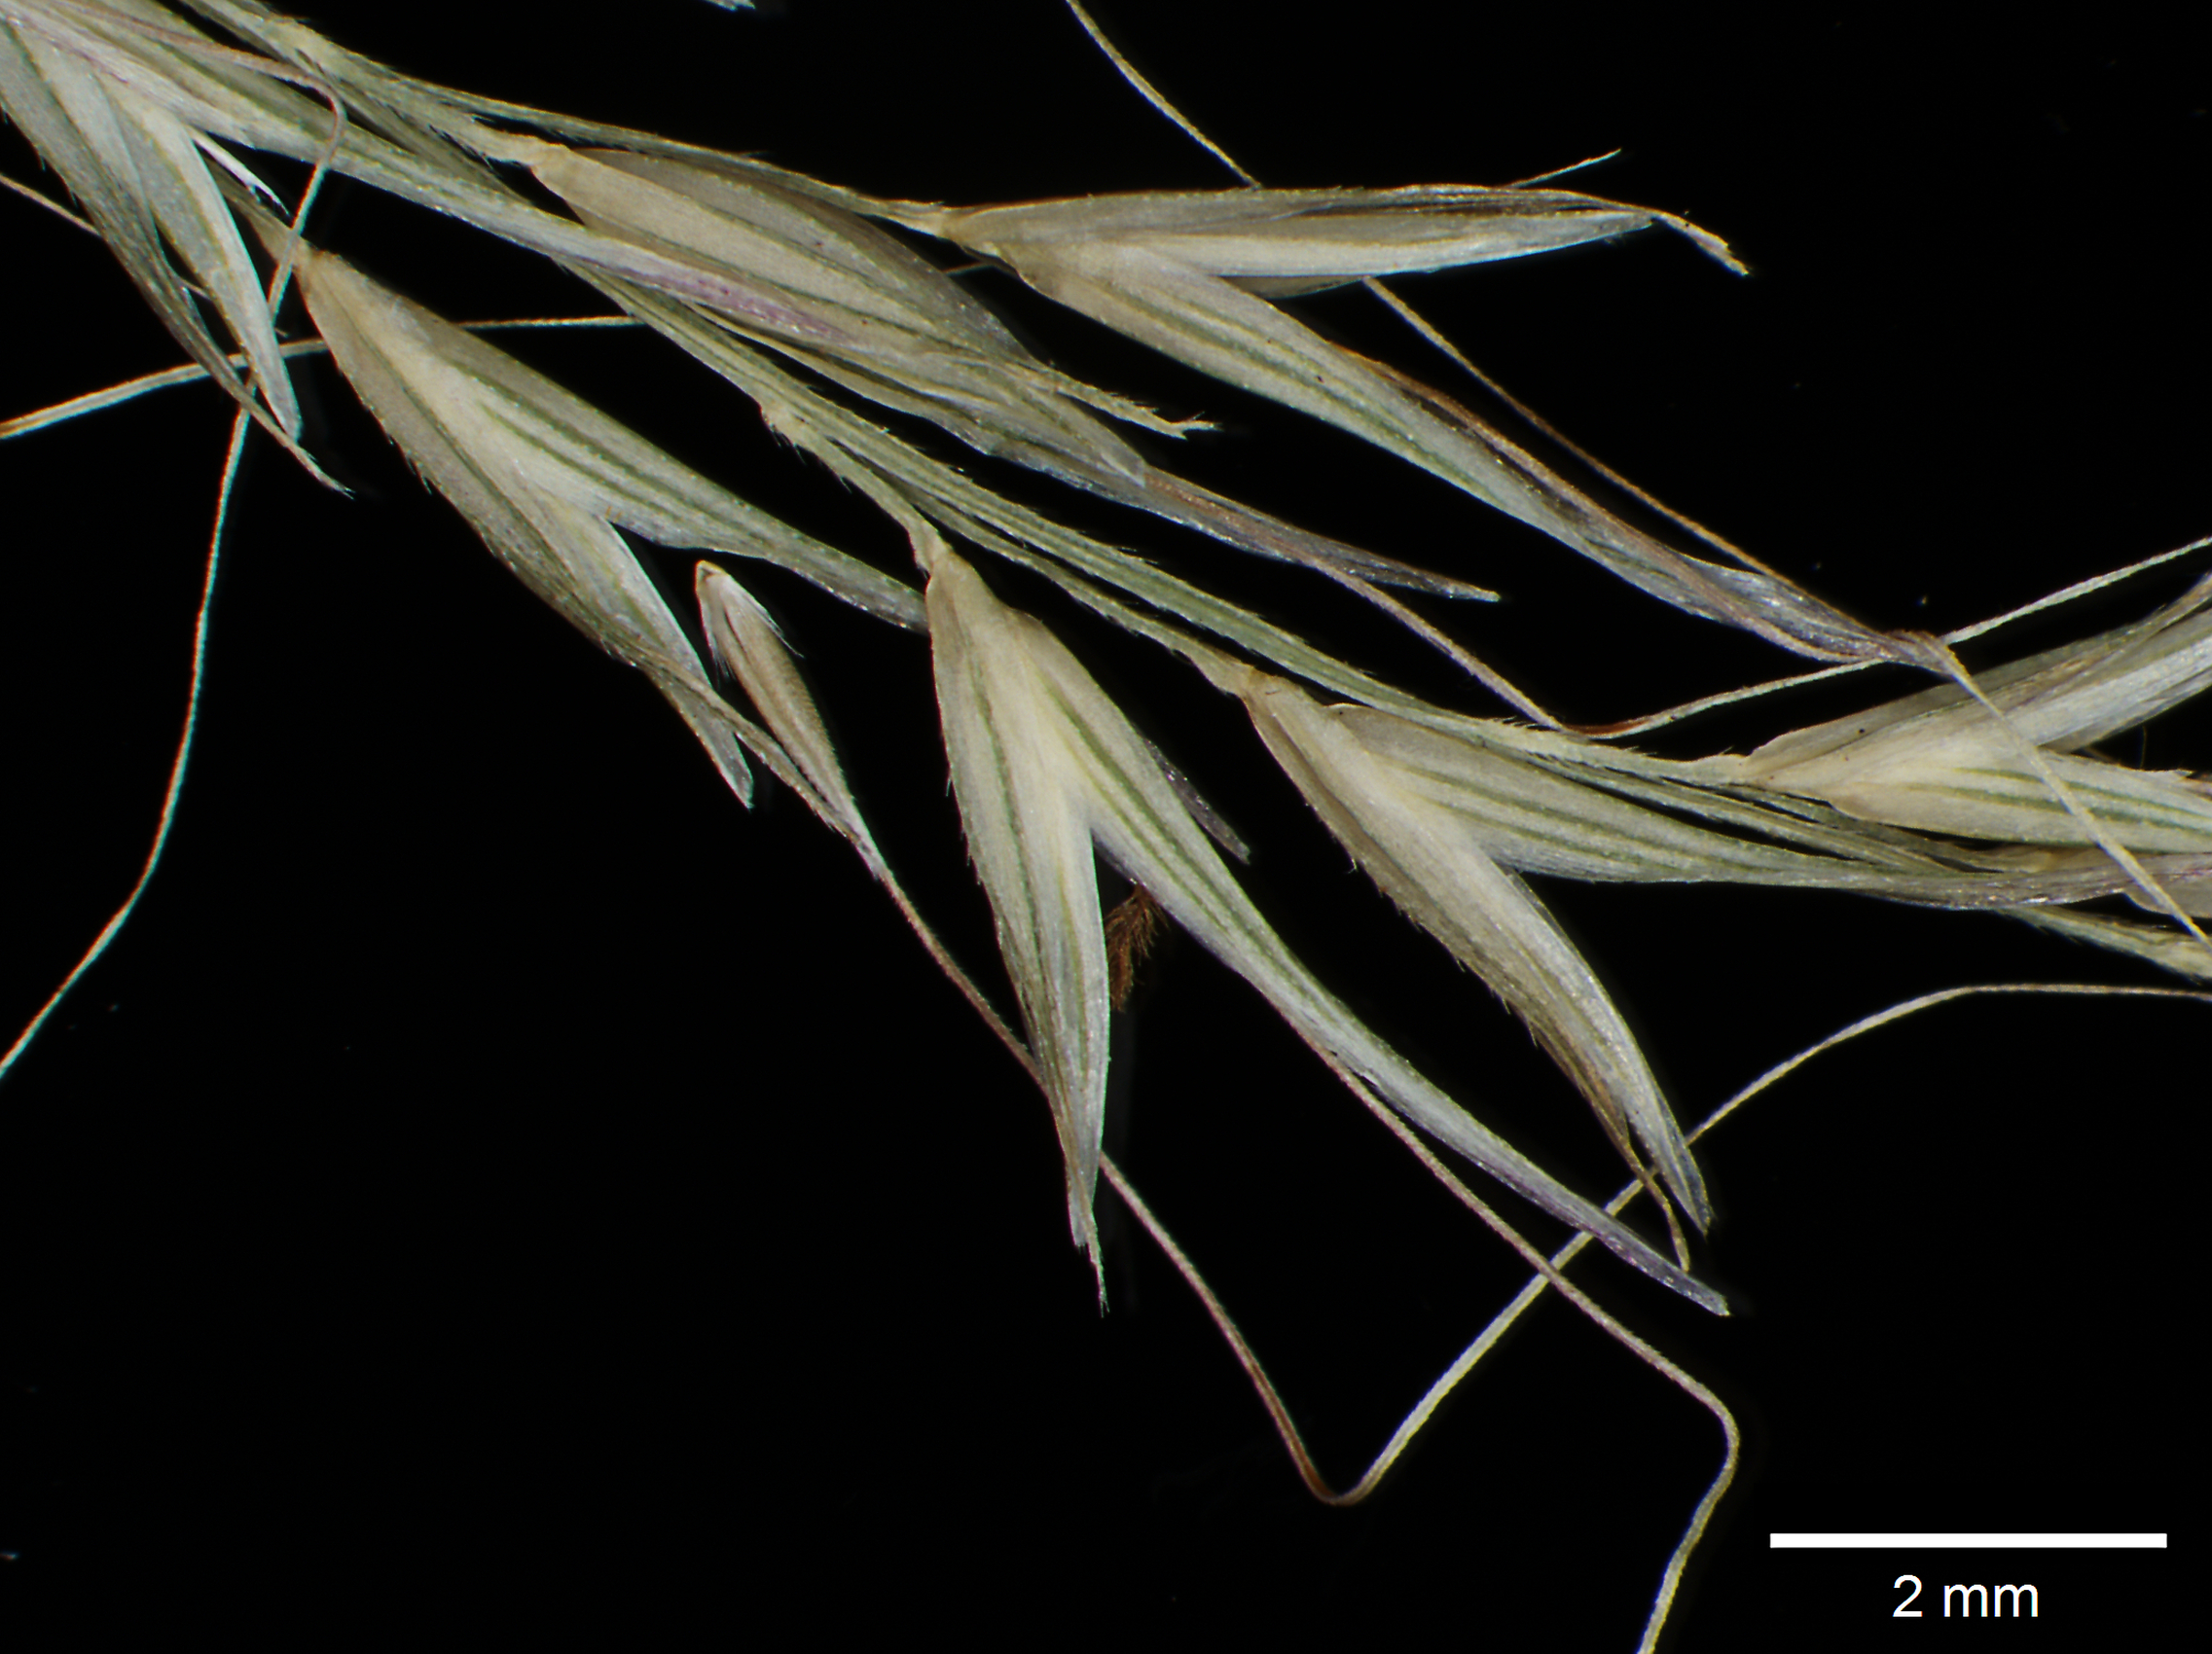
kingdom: Plantae
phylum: Tracheophyta
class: Liliopsida
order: Poales
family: Poaceae
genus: Arundinella
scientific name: Arundinella berteroniana
